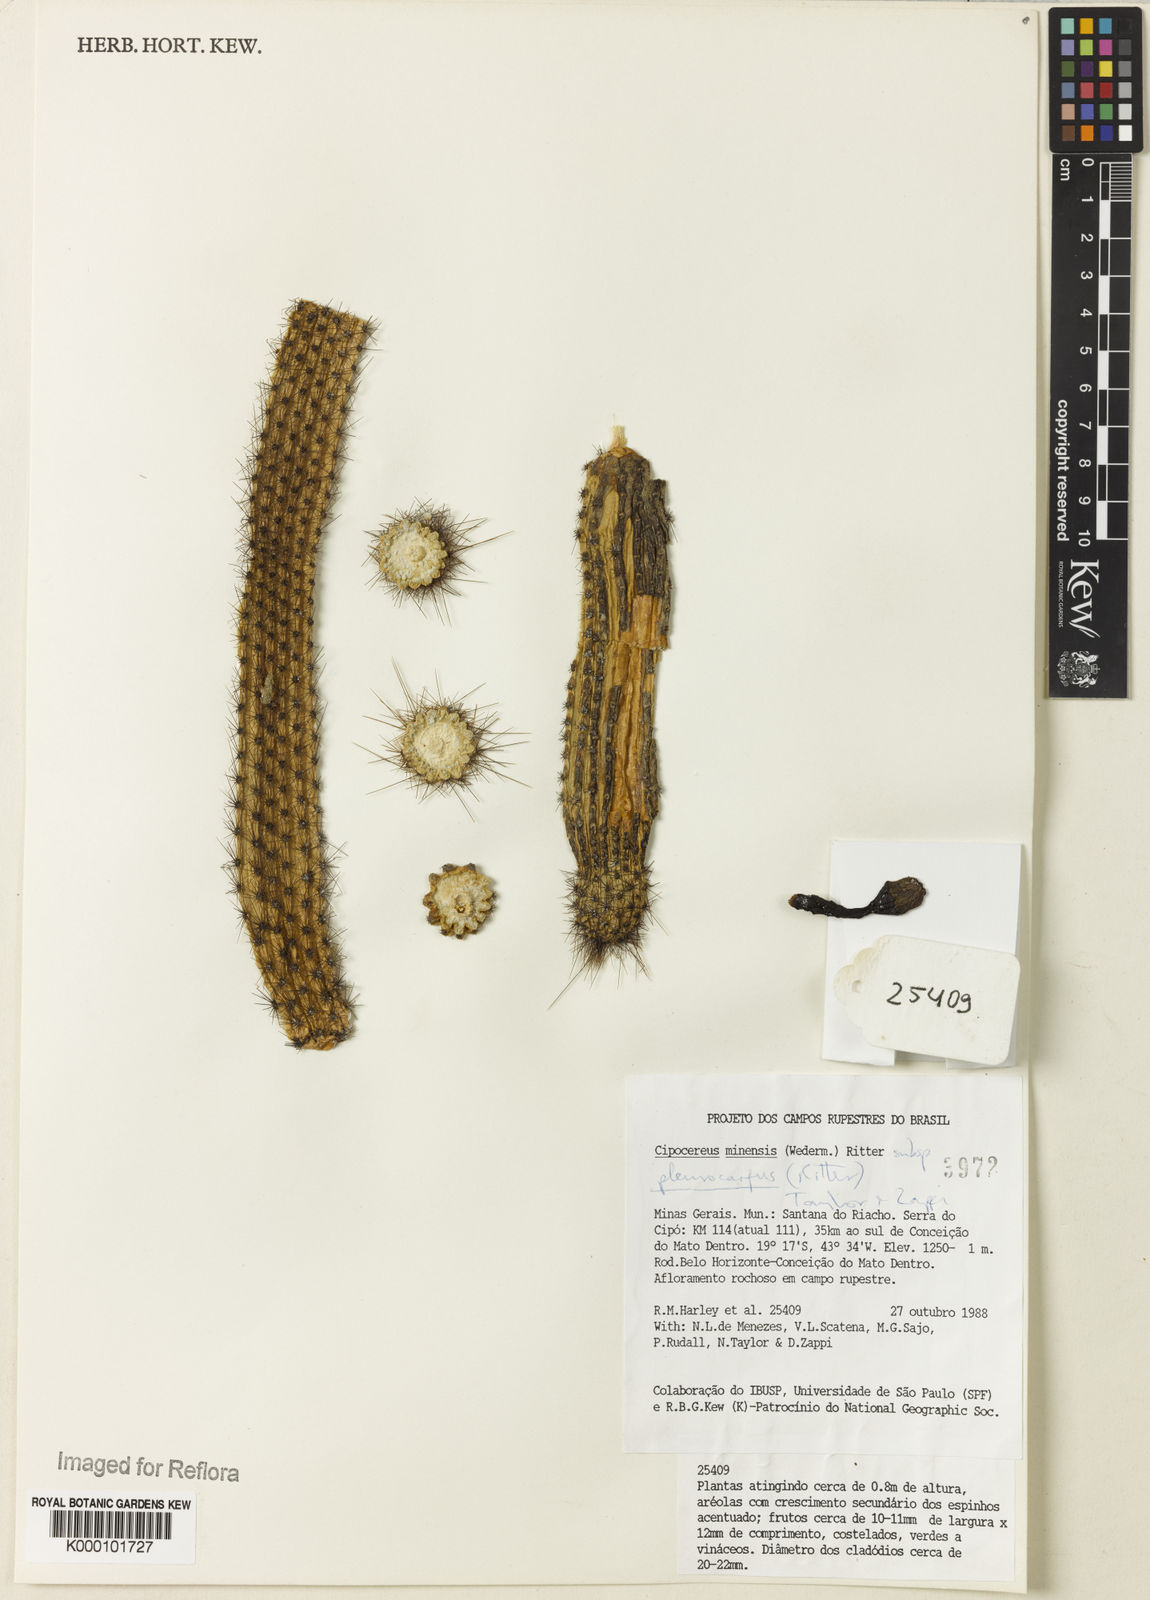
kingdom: Plantae
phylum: Tracheophyta
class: Magnoliopsida
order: Caryophyllales
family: Cactaceae
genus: Cipocereus
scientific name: Cipocereus minensis
